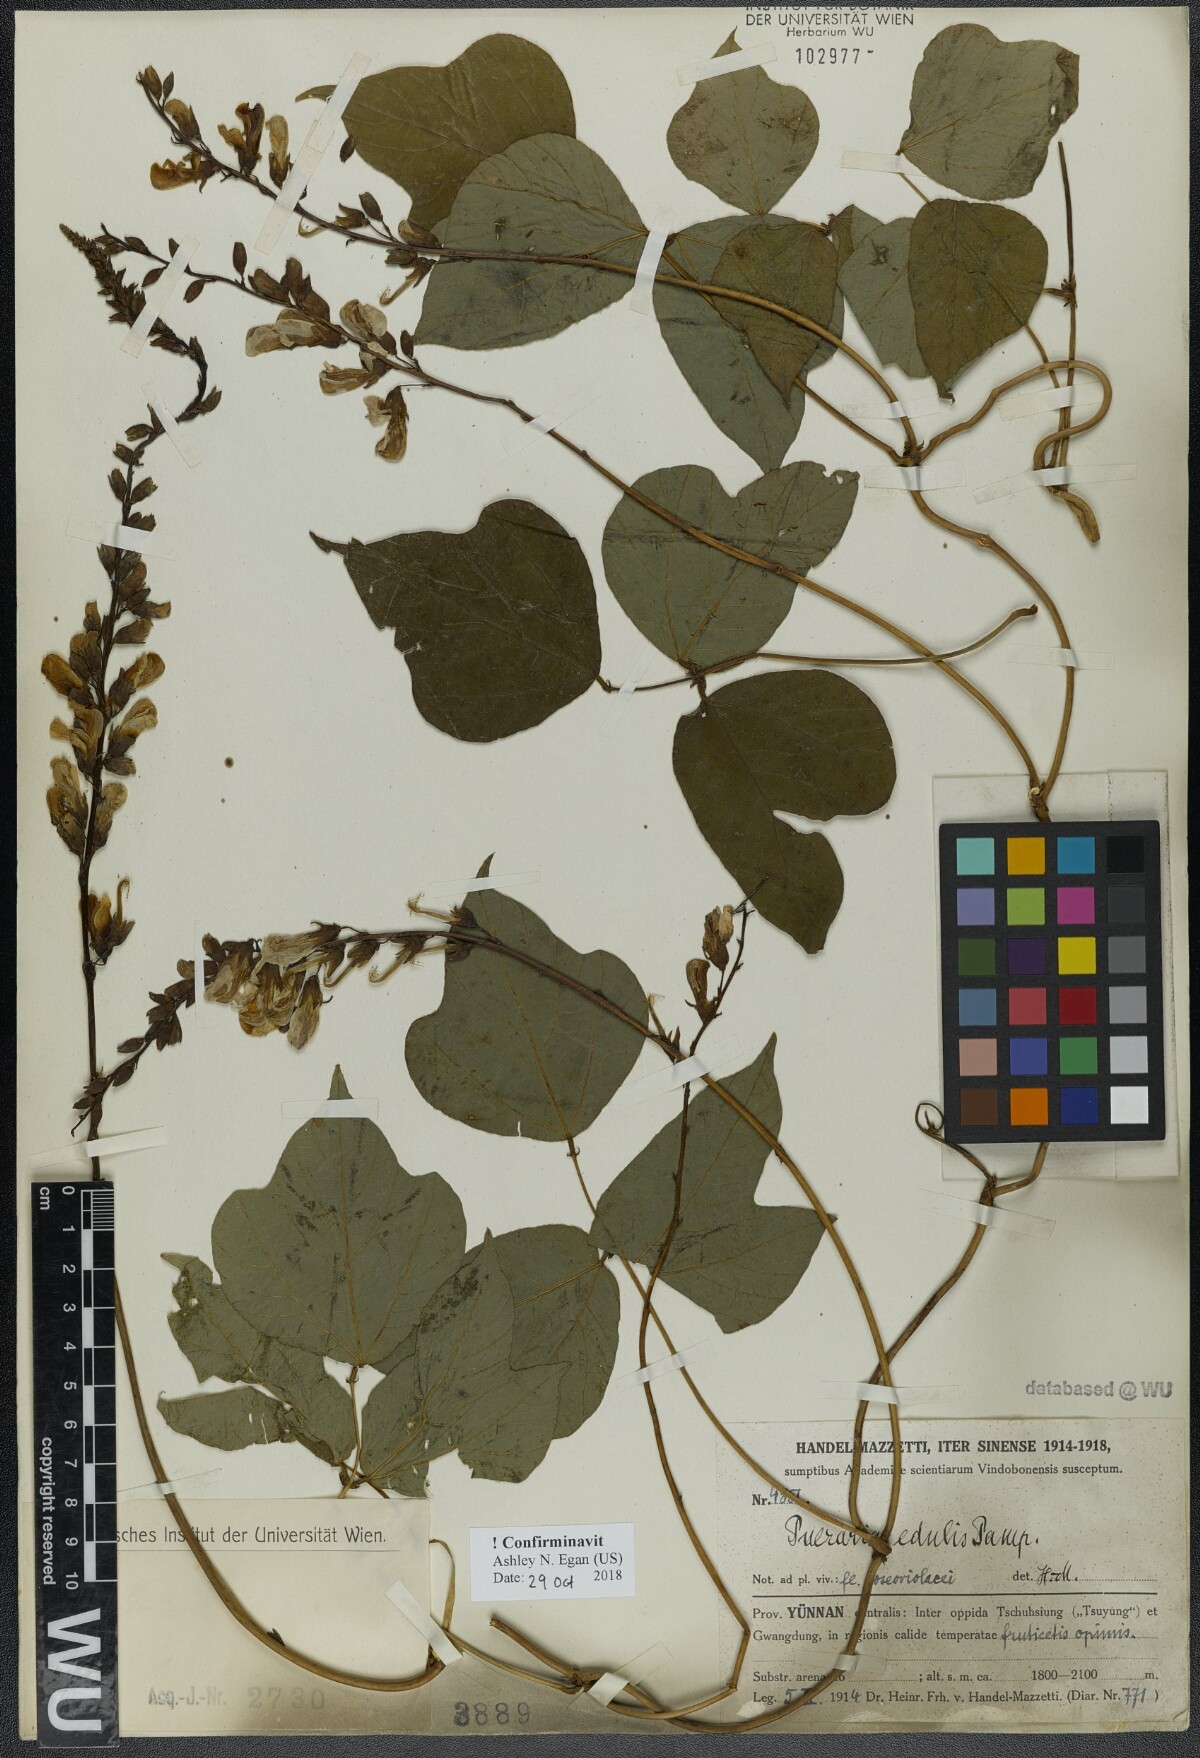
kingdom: Plantae
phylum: Tracheophyta
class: Magnoliopsida
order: Fabales
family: Fabaceae
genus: Pueraria
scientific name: Pueraria edulis
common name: Edible kudzu
